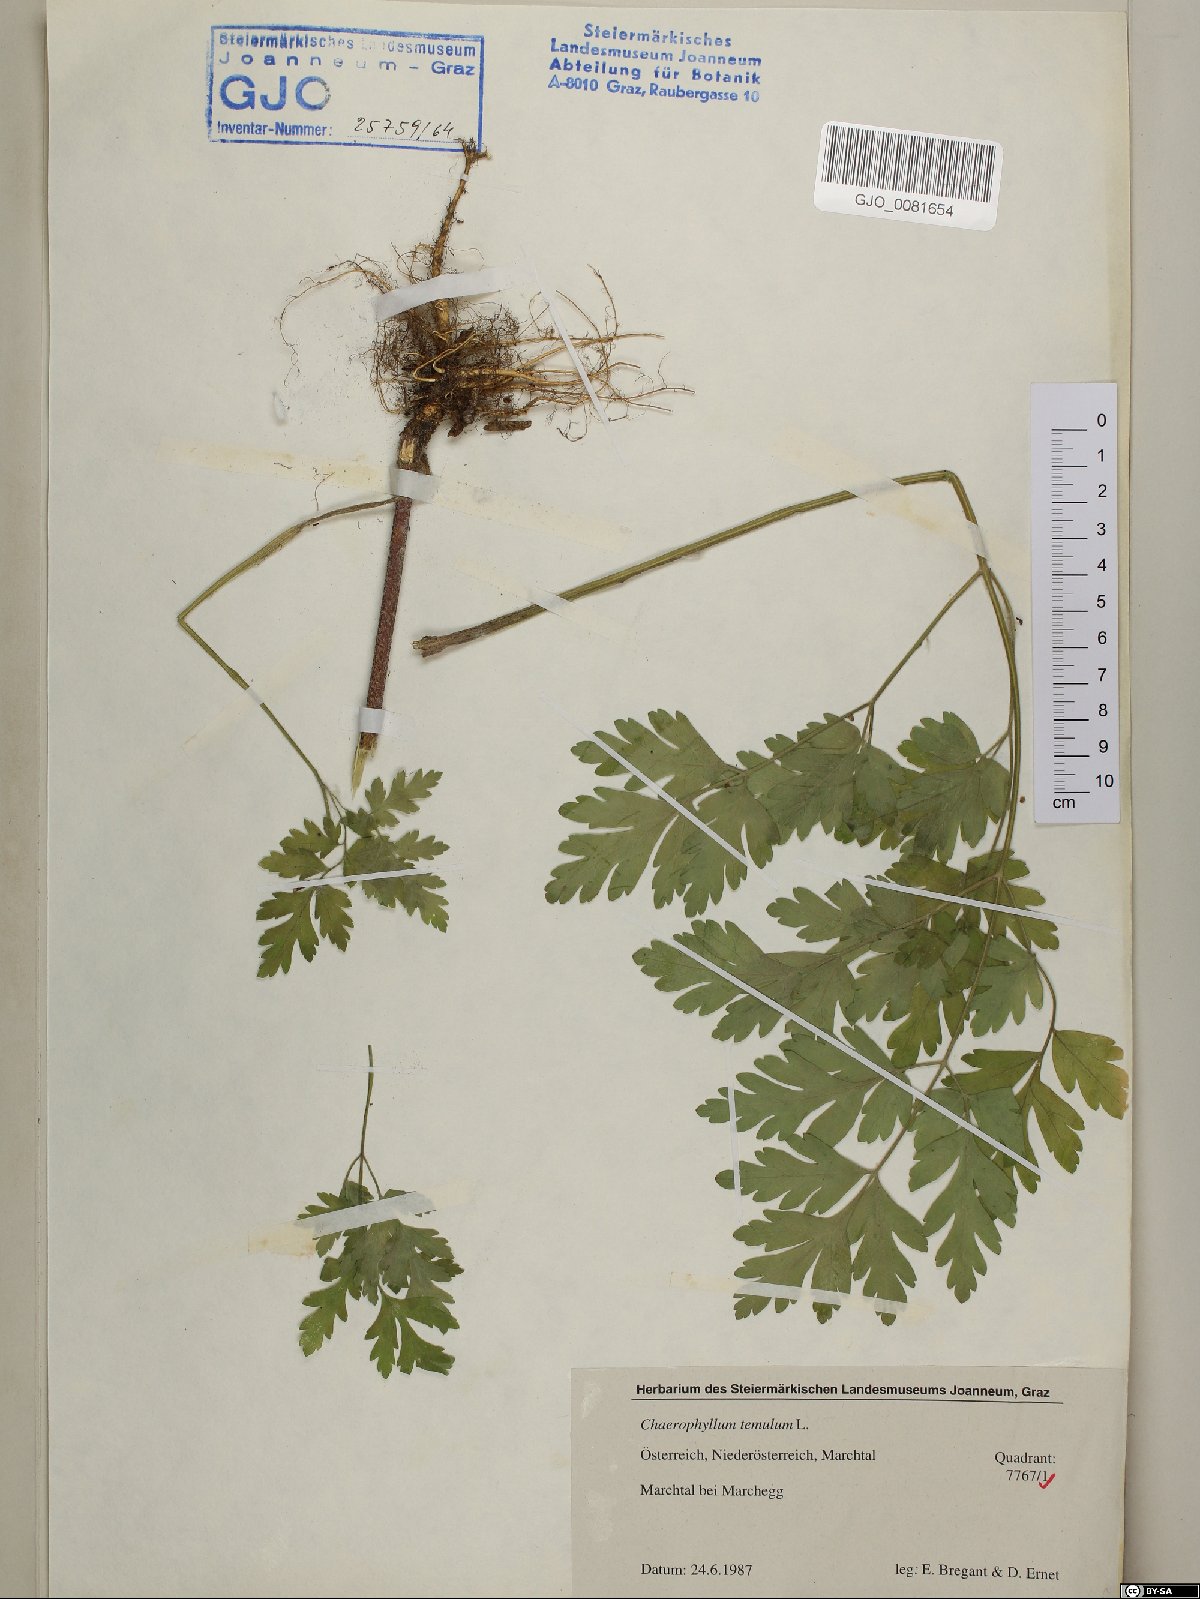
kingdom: Plantae
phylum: Tracheophyta
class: Magnoliopsida
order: Apiales
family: Apiaceae
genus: Chaerophyllum
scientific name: Chaerophyllum temulum
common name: Rough chervil
